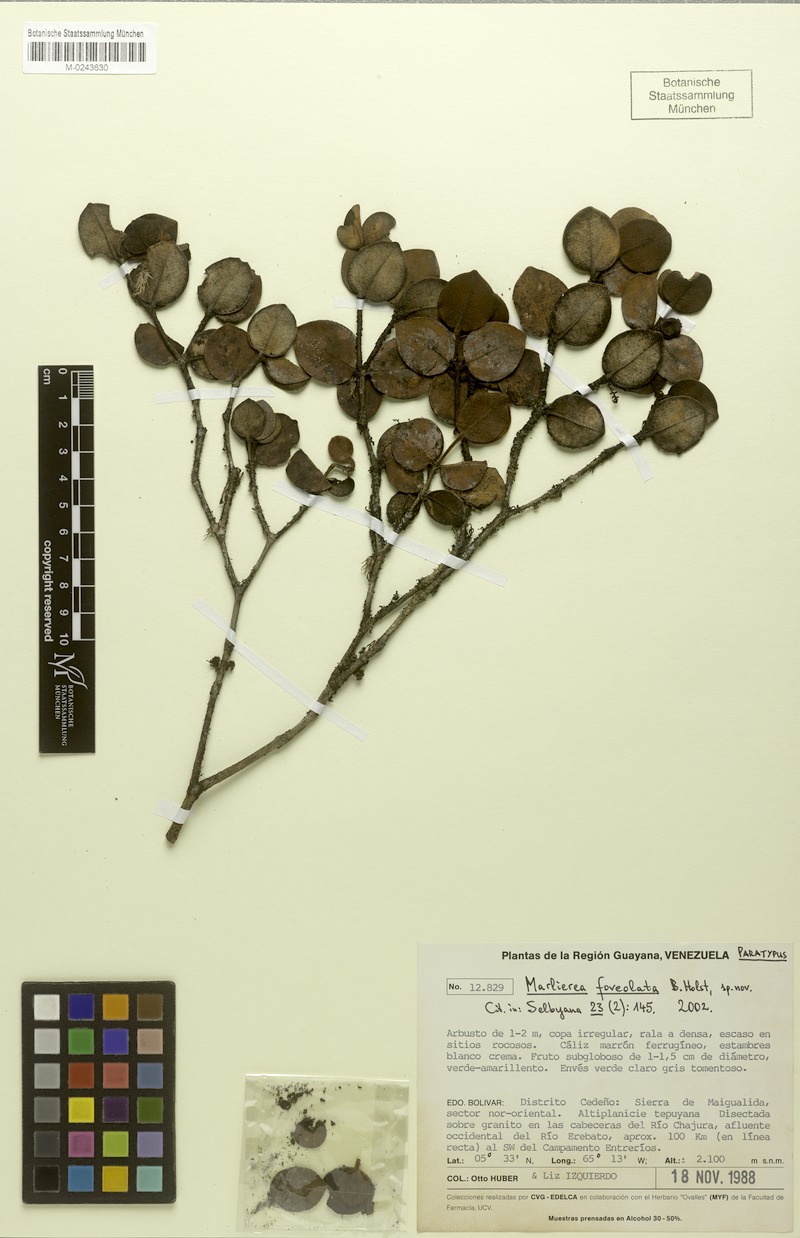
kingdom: Plantae
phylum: Tracheophyta
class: Magnoliopsida
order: Myrtales
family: Myrtaceae
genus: Myrcia
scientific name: Myrcia foveolata
